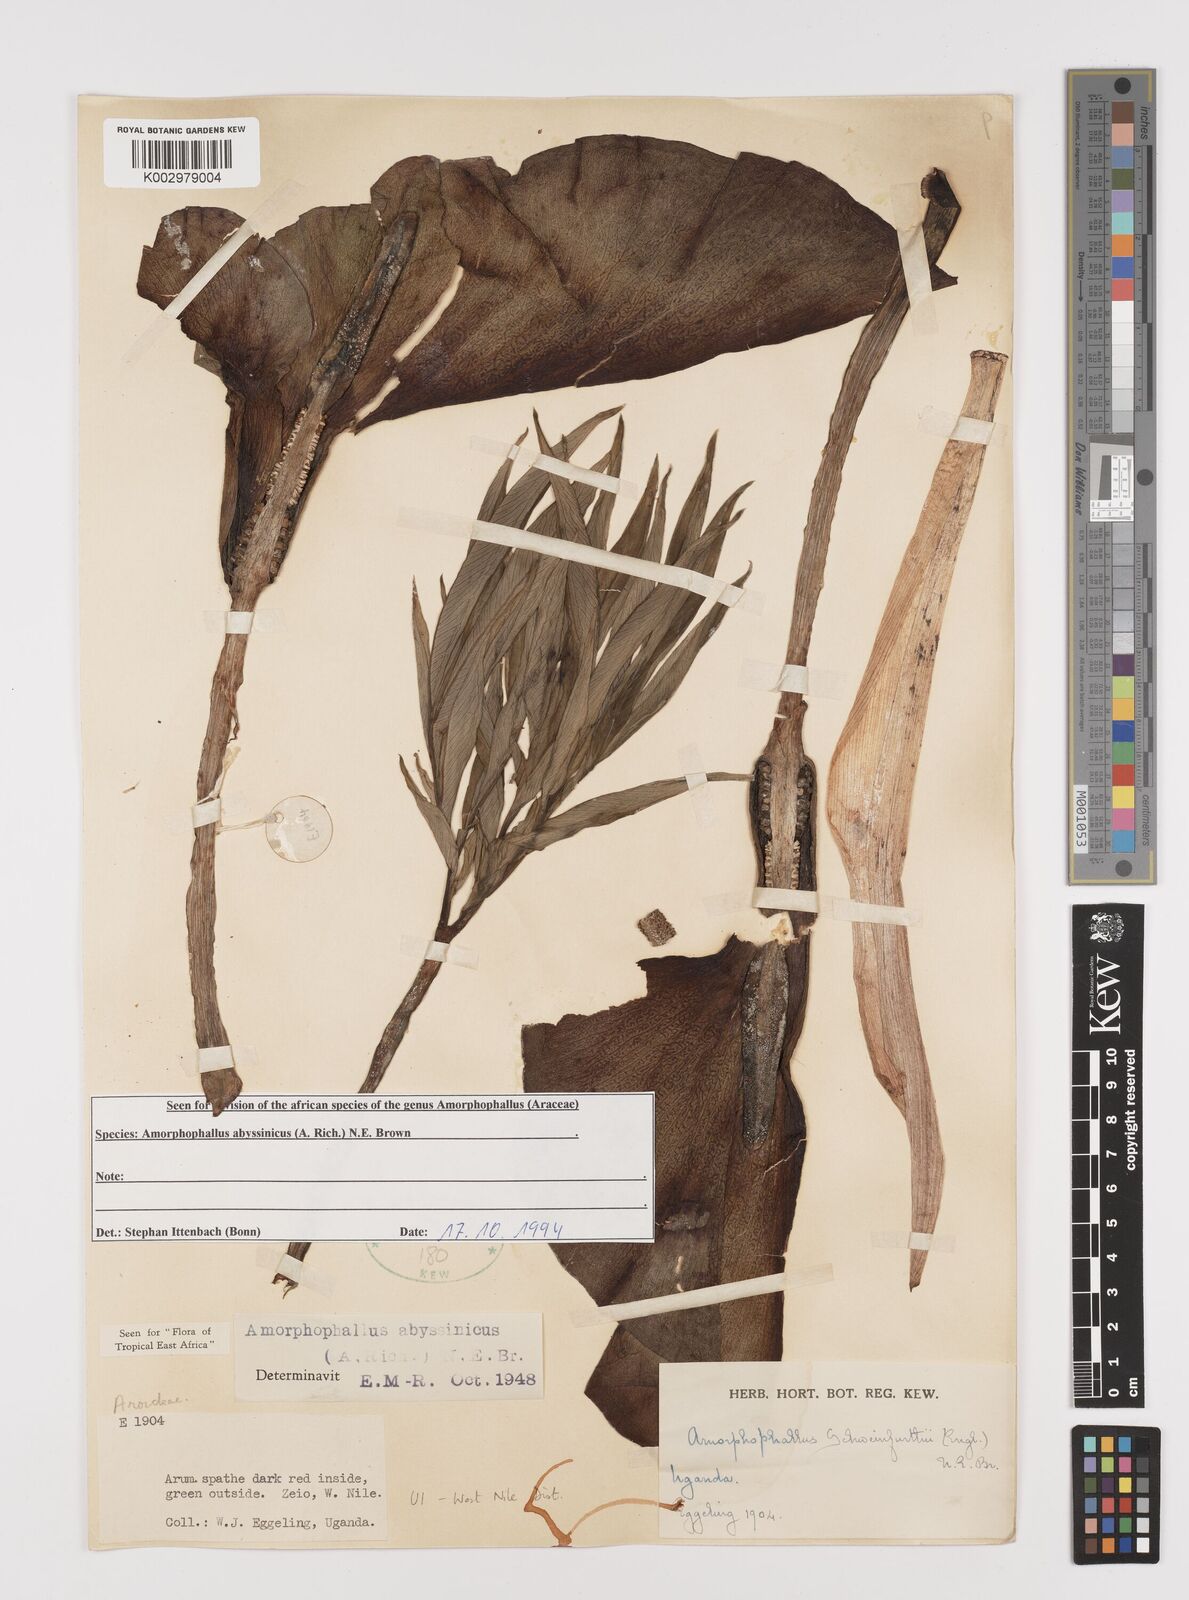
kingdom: Plantae
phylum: Tracheophyta
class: Liliopsida
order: Alismatales
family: Araceae
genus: Amorphophallus
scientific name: Amorphophallus abyssinicus
